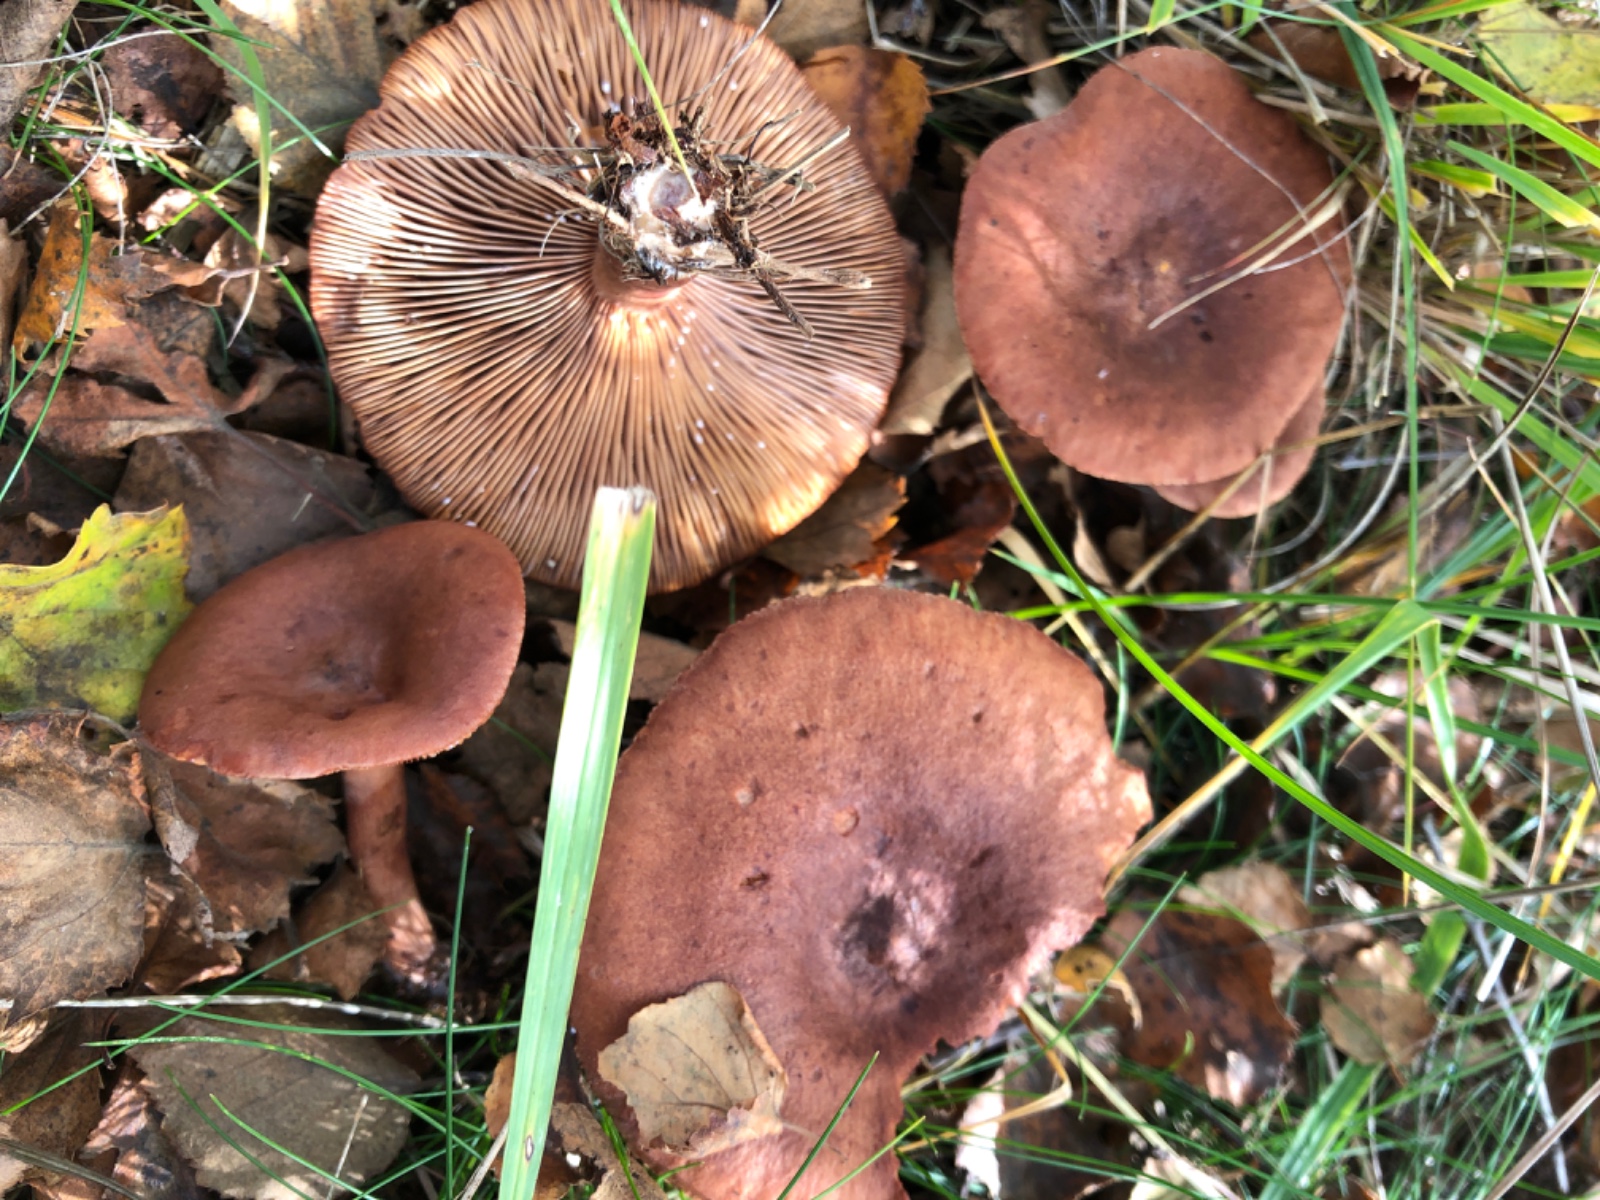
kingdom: Fungi
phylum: Basidiomycota
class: Agaricomycetes
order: Russulales
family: Russulaceae
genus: Lactarius
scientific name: Lactarius rufus
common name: rødbrun mælkehat
